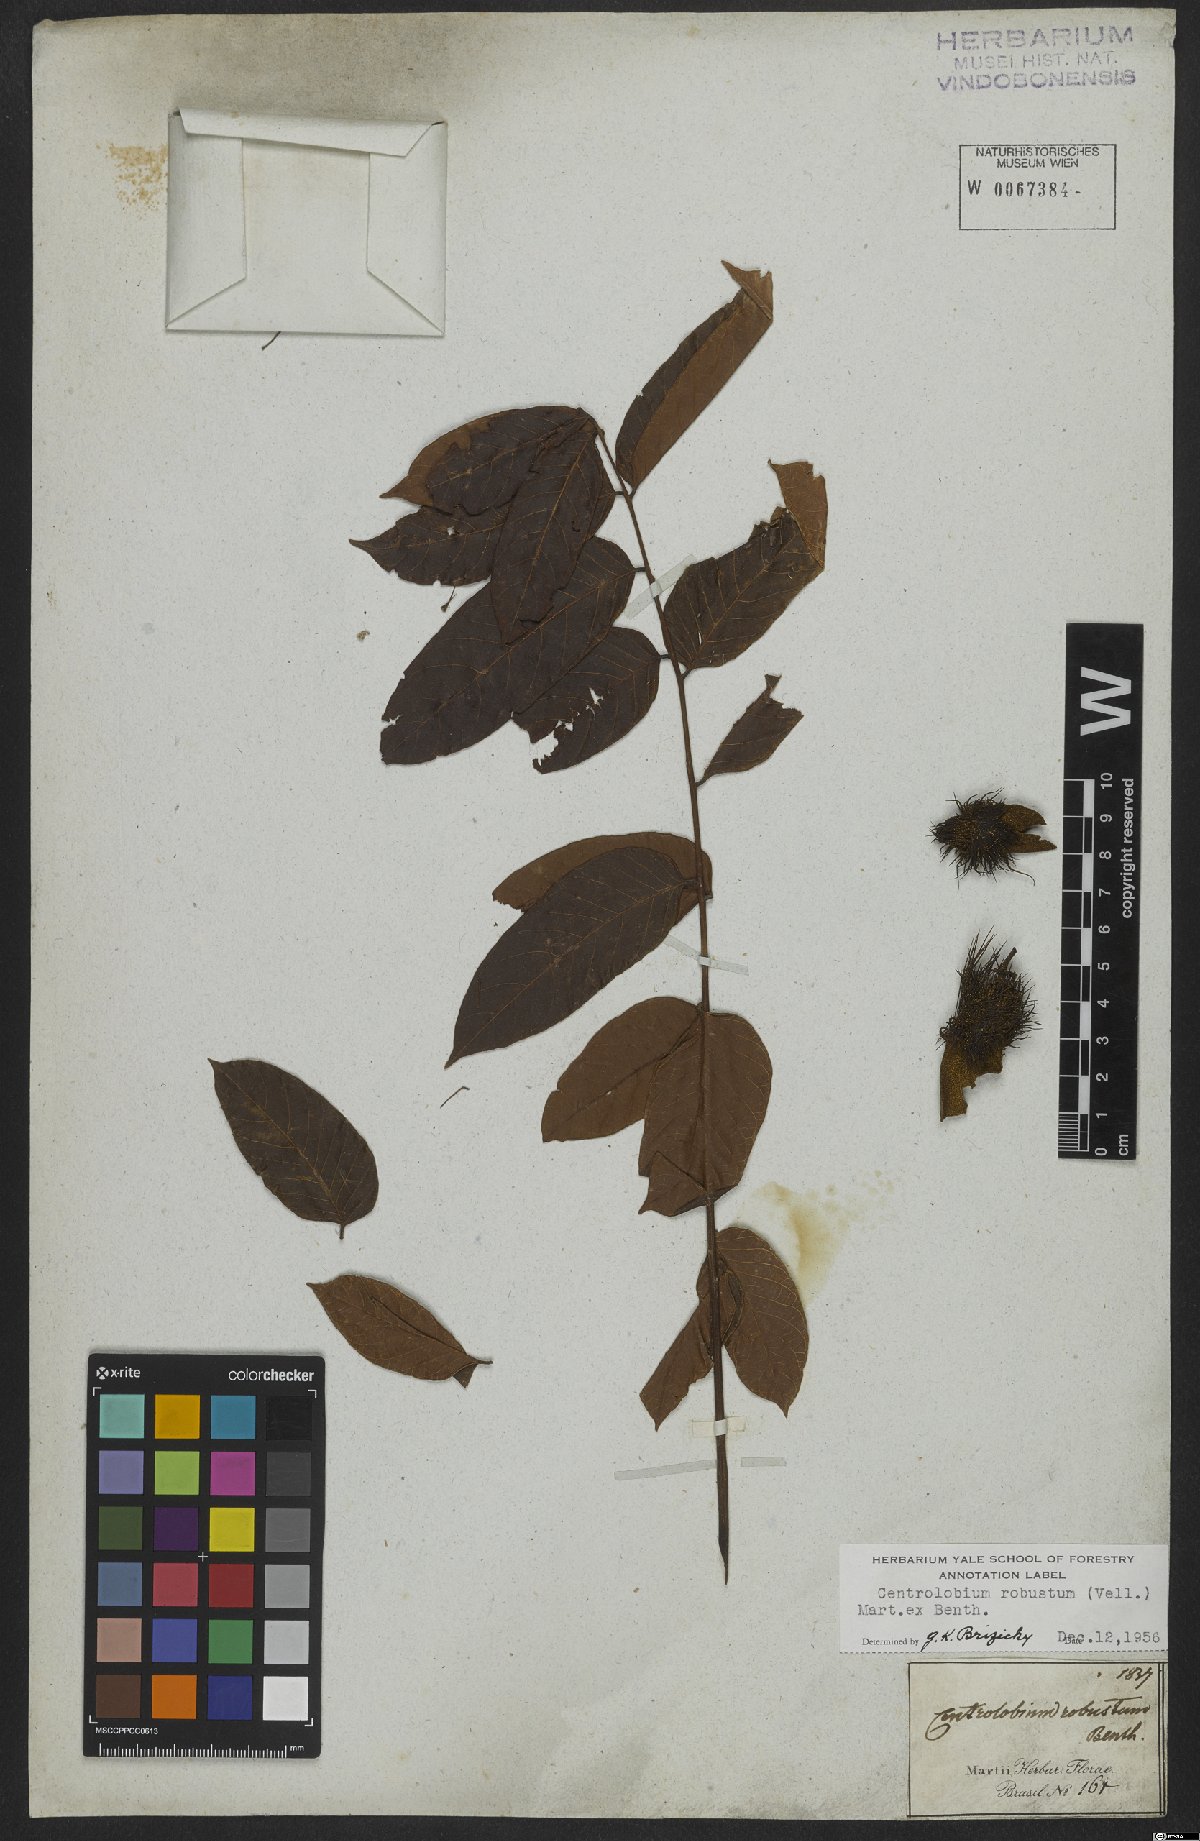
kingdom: Plantae
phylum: Tracheophyta
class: Magnoliopsida
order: Fabales
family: Fabaceae
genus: Centrolobium
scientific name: Centrolobium robustum
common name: Zebrawood
